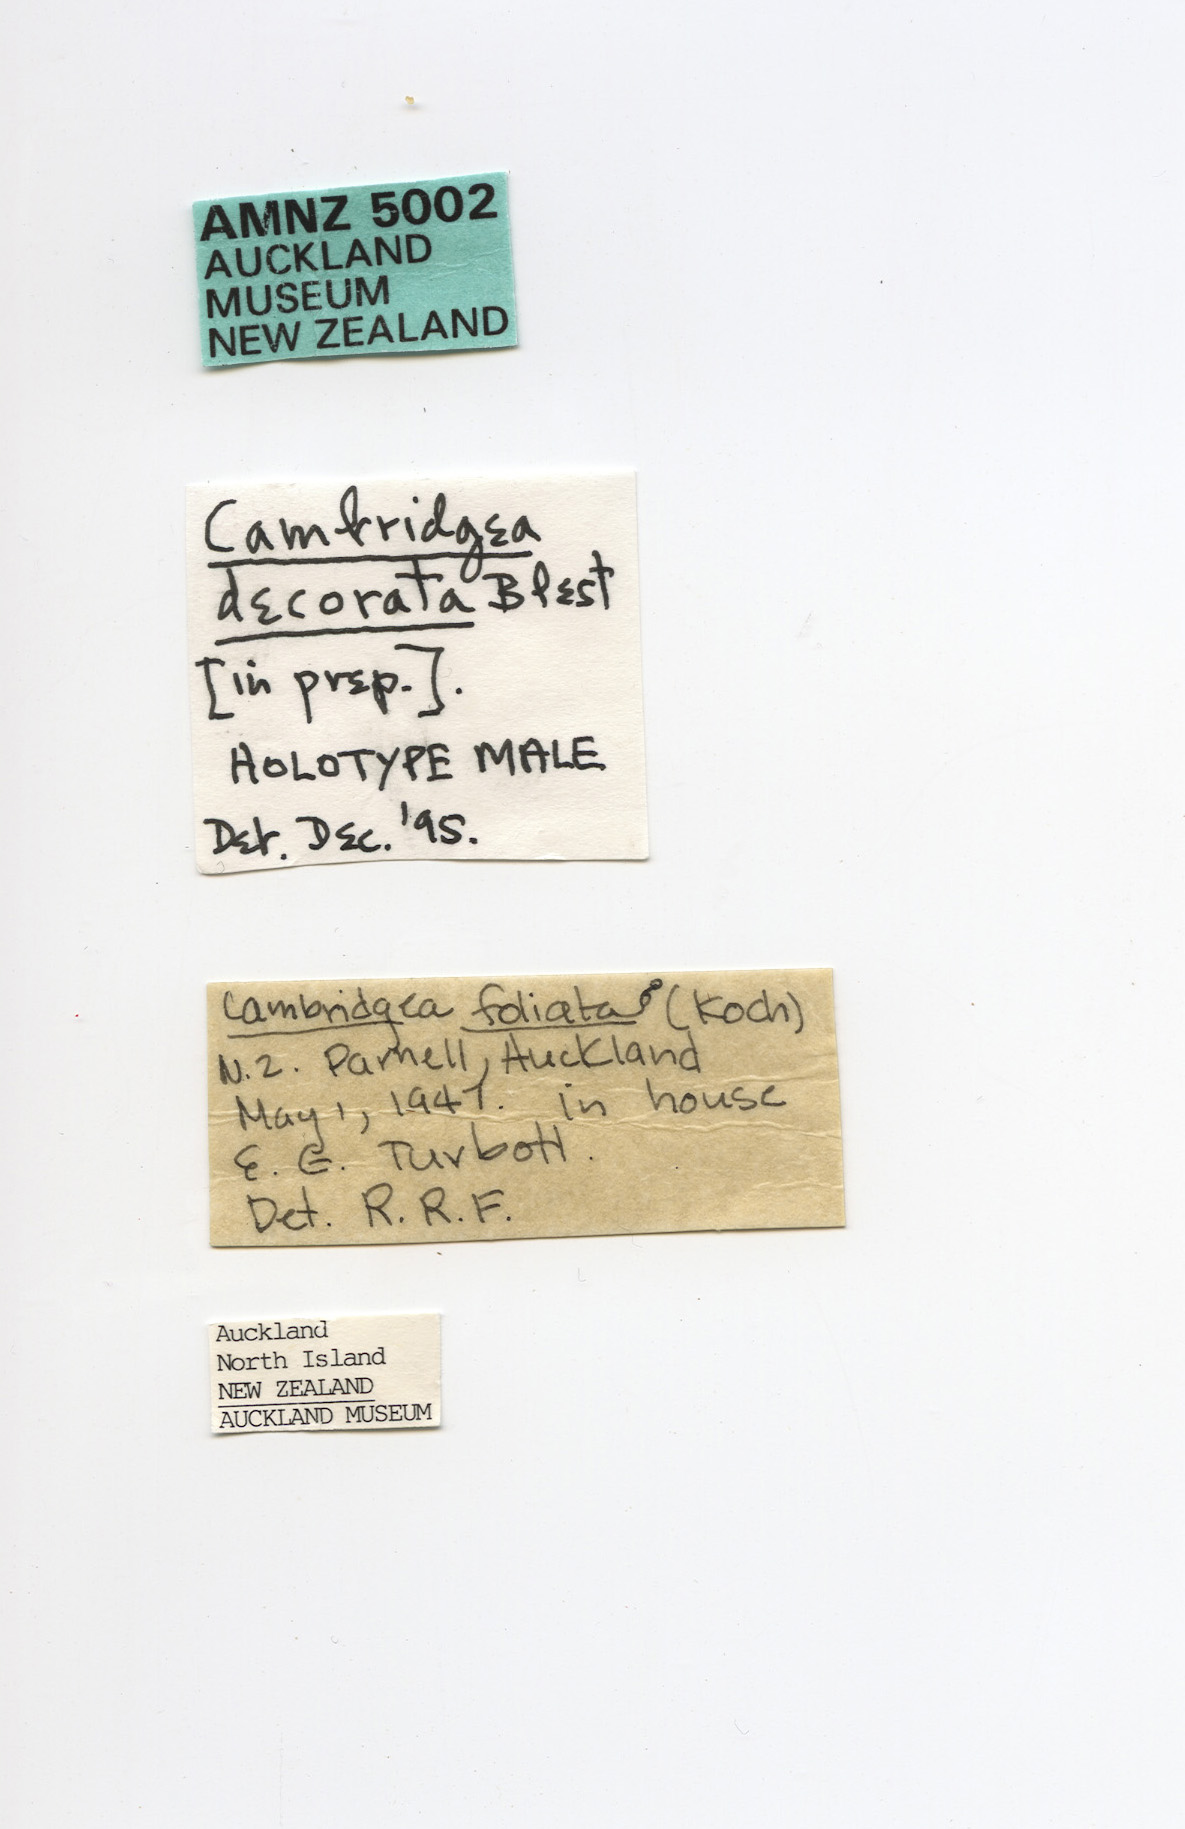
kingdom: Animalia
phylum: Arthropoda
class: Arachnida
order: Araneae
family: Desidae
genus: Cambridgea
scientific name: Cambridgea decorata
